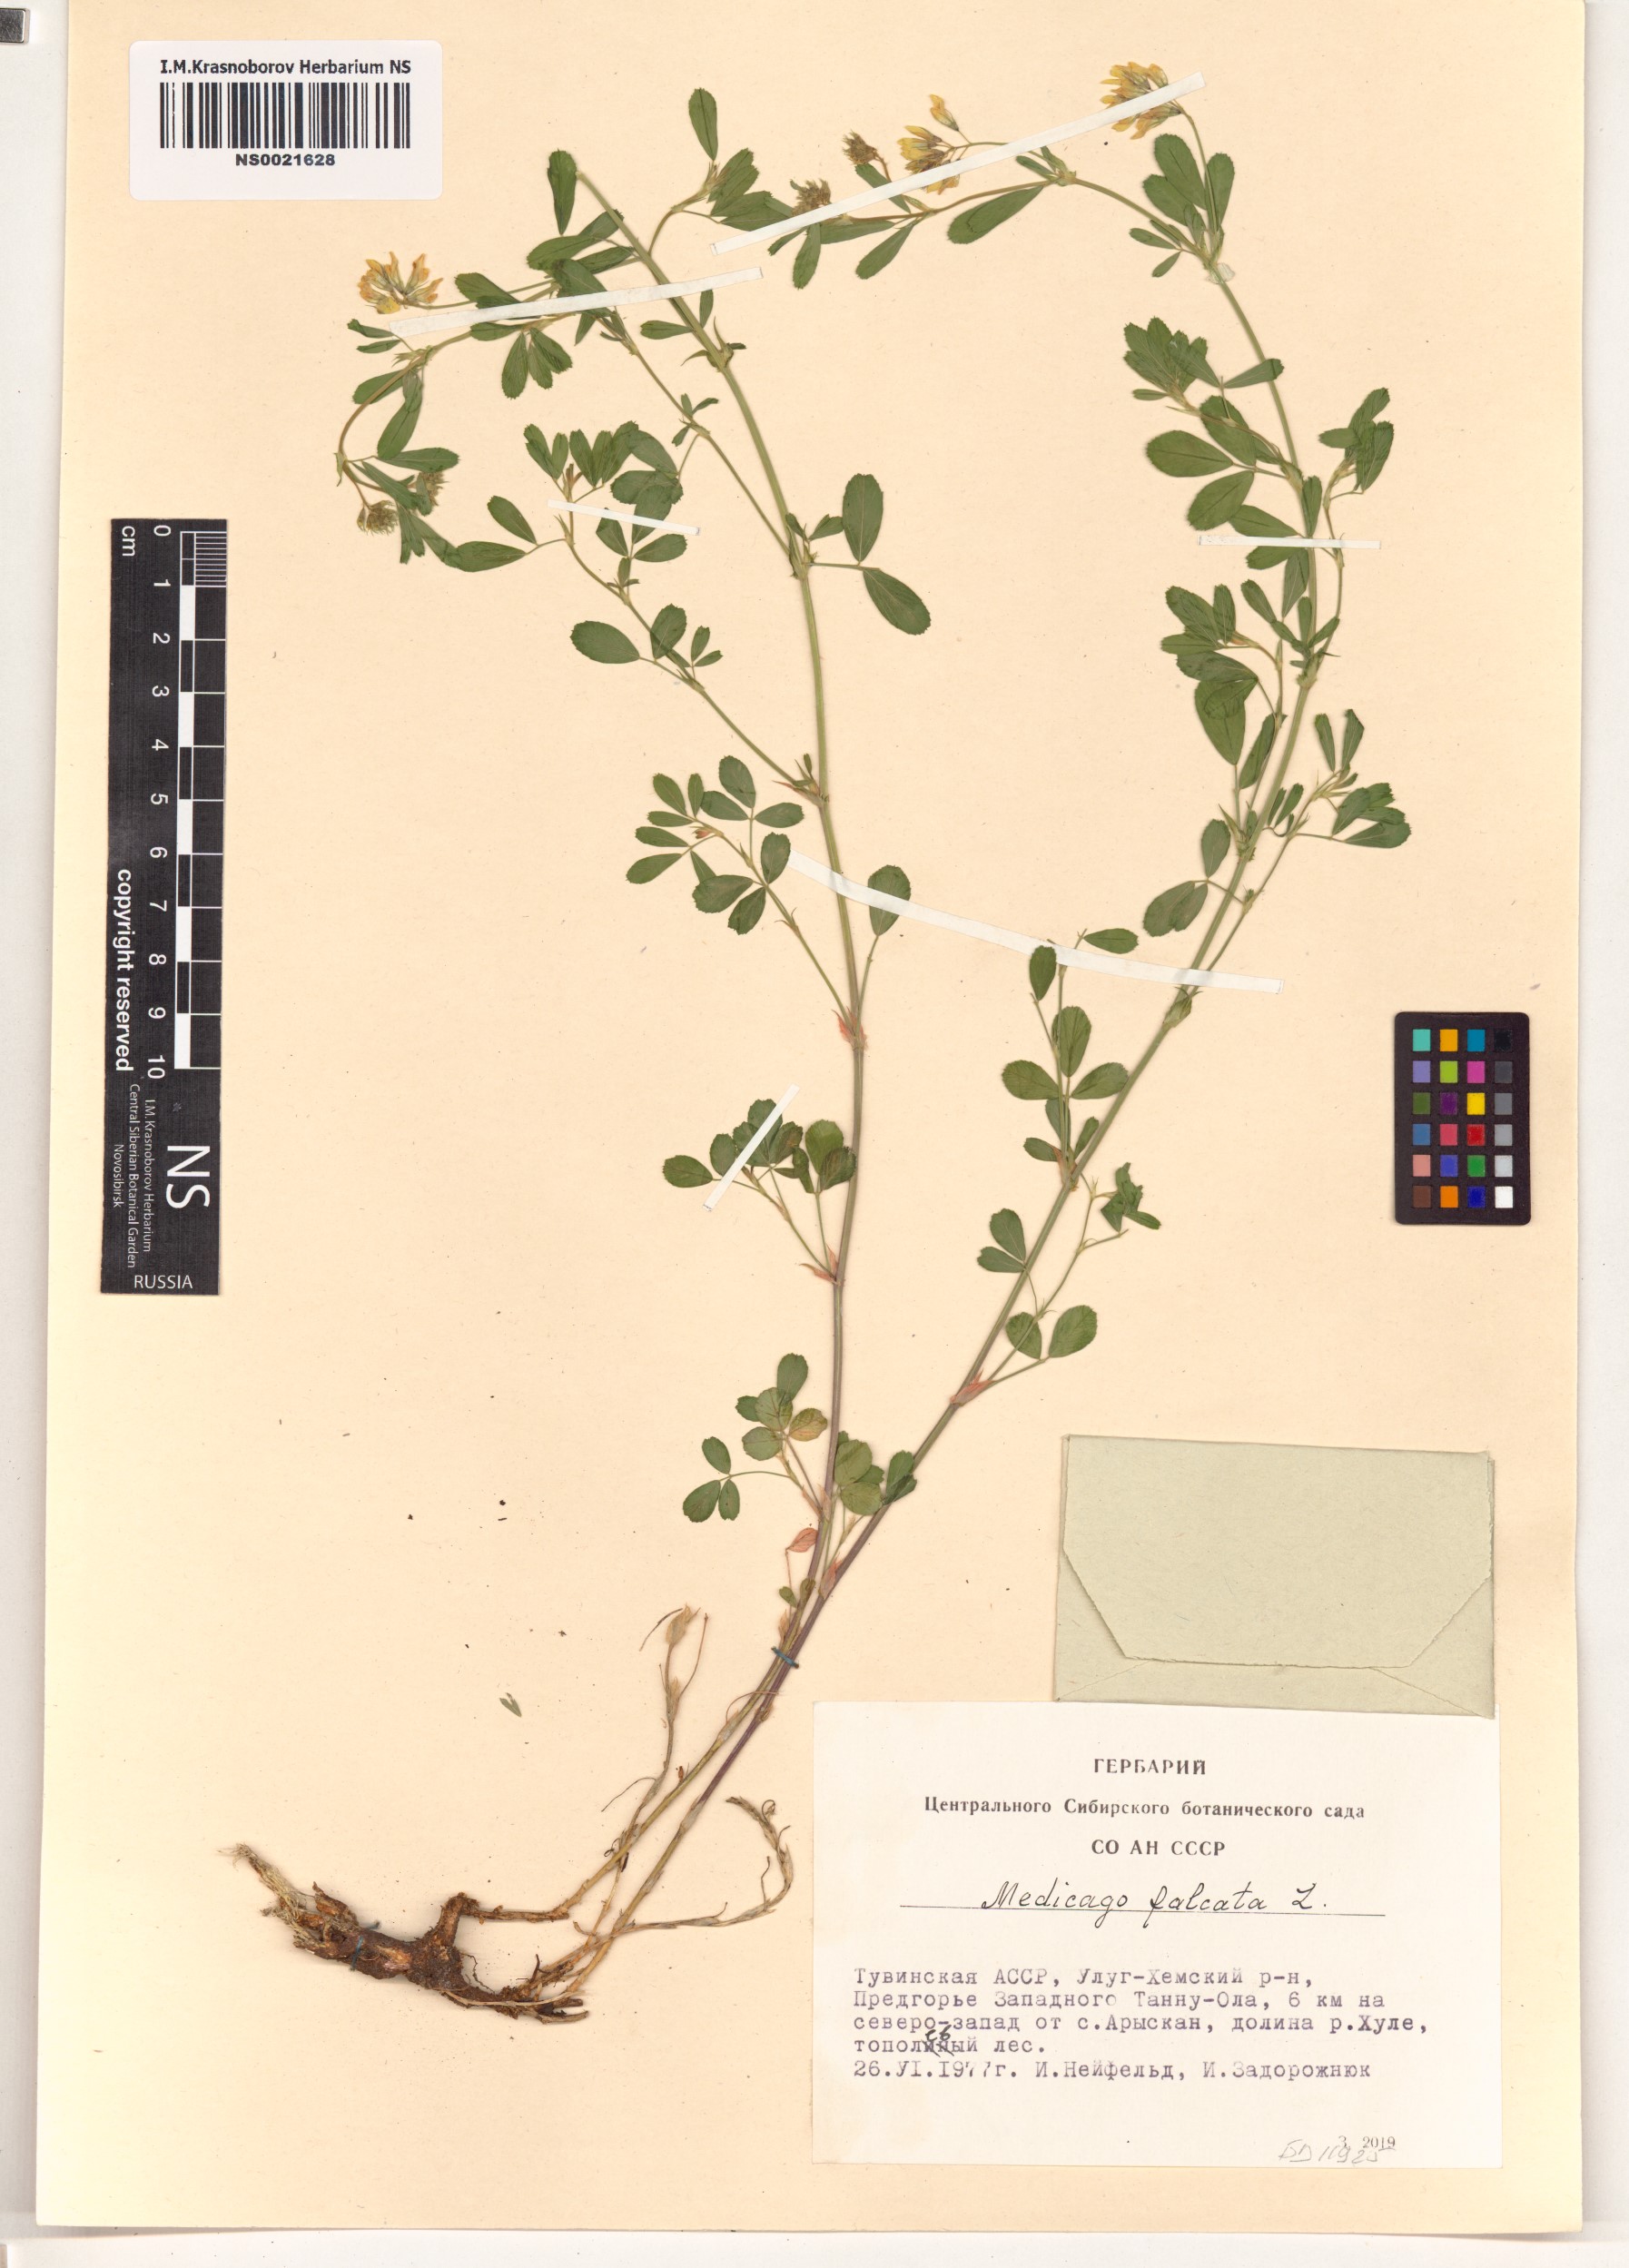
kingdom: Plantae
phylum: Tracheophyta
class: Magnoliopsida
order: Fabales
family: Fabaceae
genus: Medicago
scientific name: Medicago falcata
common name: Sickle medick
